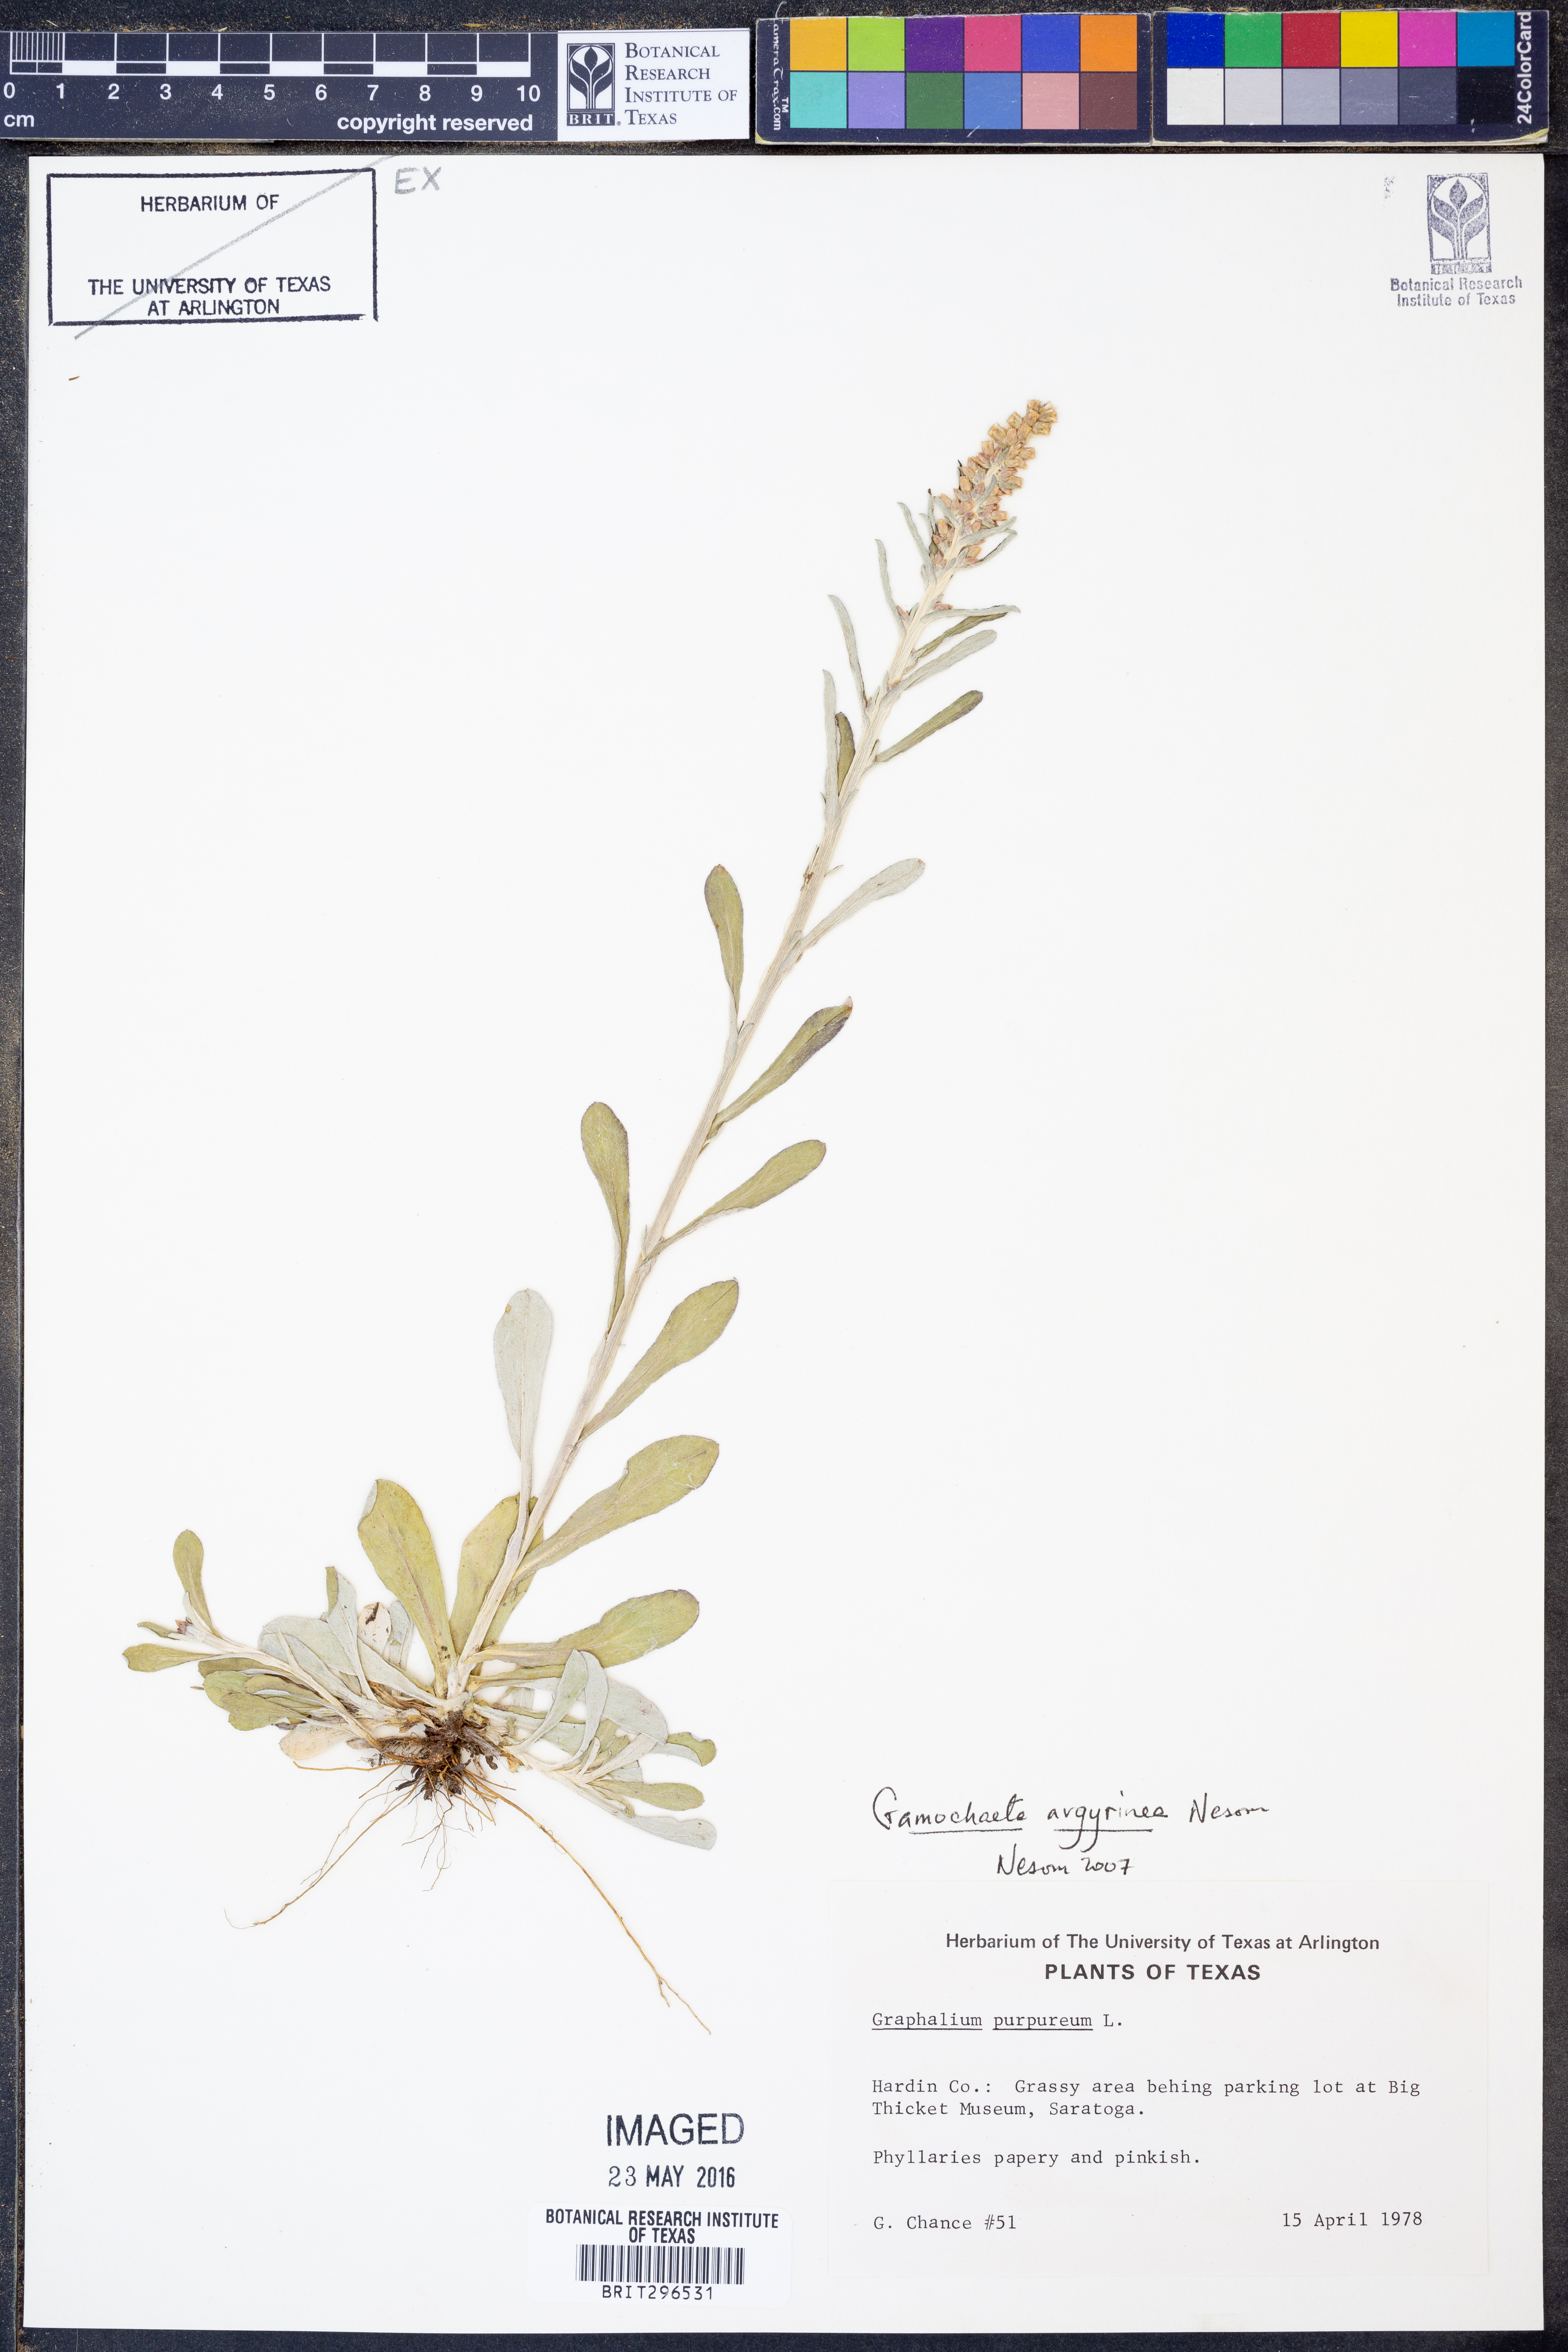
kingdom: Plantae
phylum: Tracheophyta
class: Magnoliopsida
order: Asterales
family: Asteraceae
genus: Gamochaeta
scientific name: Gamochaeta argyrinea
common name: Silvery cudweed
